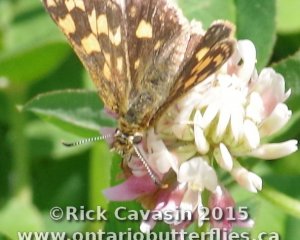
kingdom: Animalia
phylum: Arthropoda
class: Insecta
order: Lepidoptera
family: Hesperiidae
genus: Carterocephalus
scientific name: Carterocephalus palaemon
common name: Chequered Skipper
